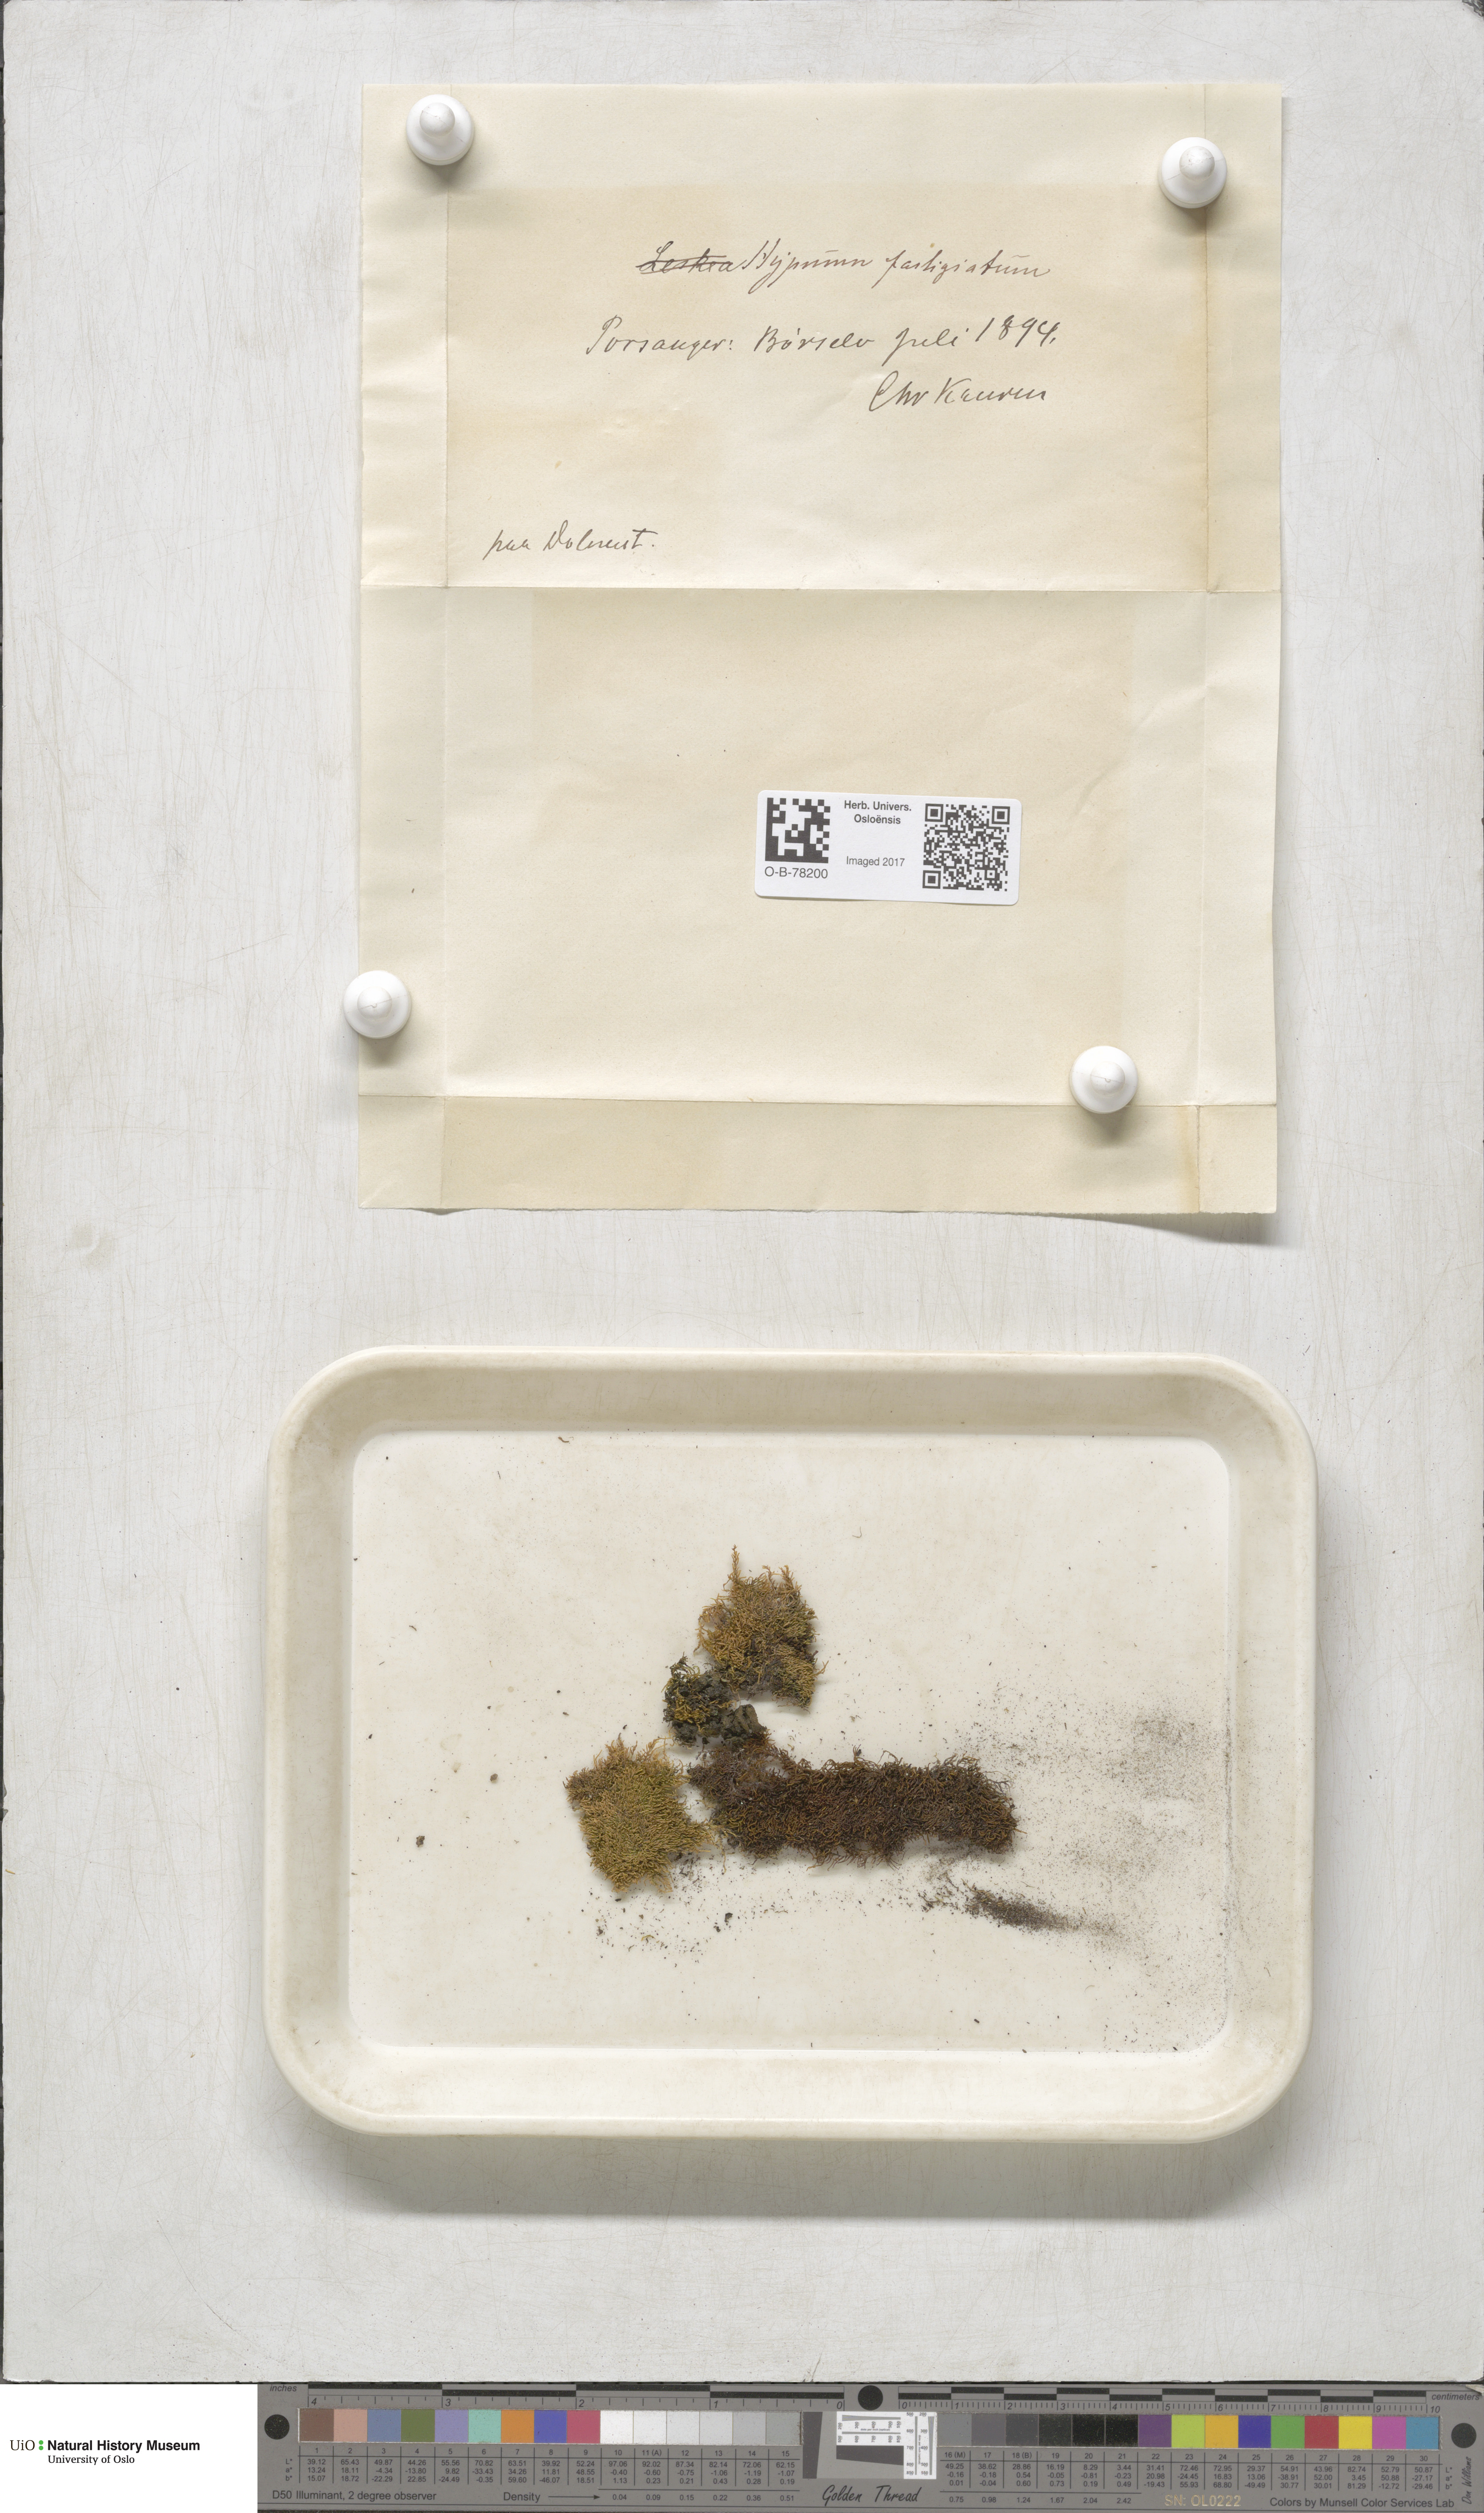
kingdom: Plantae
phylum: Bryophyta
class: Bryopsida
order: Hypnales
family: Amblystegiaceae
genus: Drepanium
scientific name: Drepanium fastigiatum
